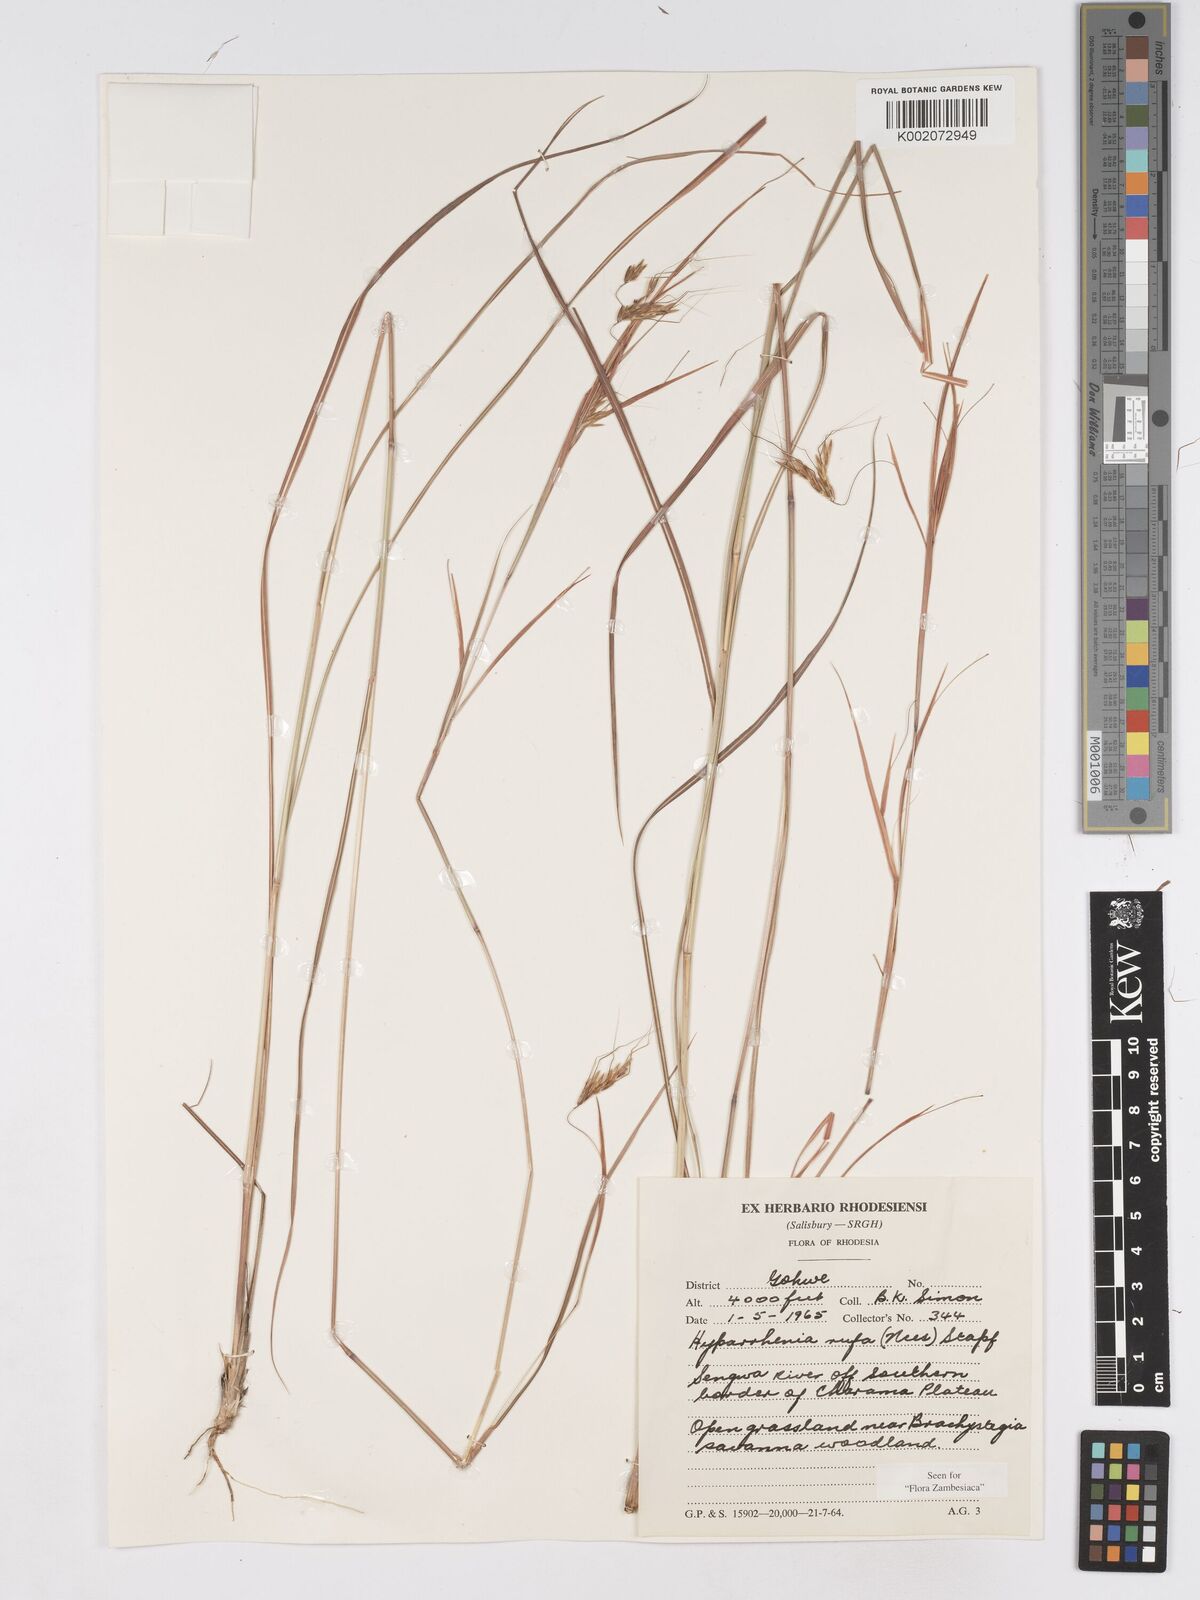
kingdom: Plantae
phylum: Tracheophyta
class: Liliopsida
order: Poales
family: Poaceae
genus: Hyparrhenia
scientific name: Hyparrhenia rufa
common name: Jaraguagrass
